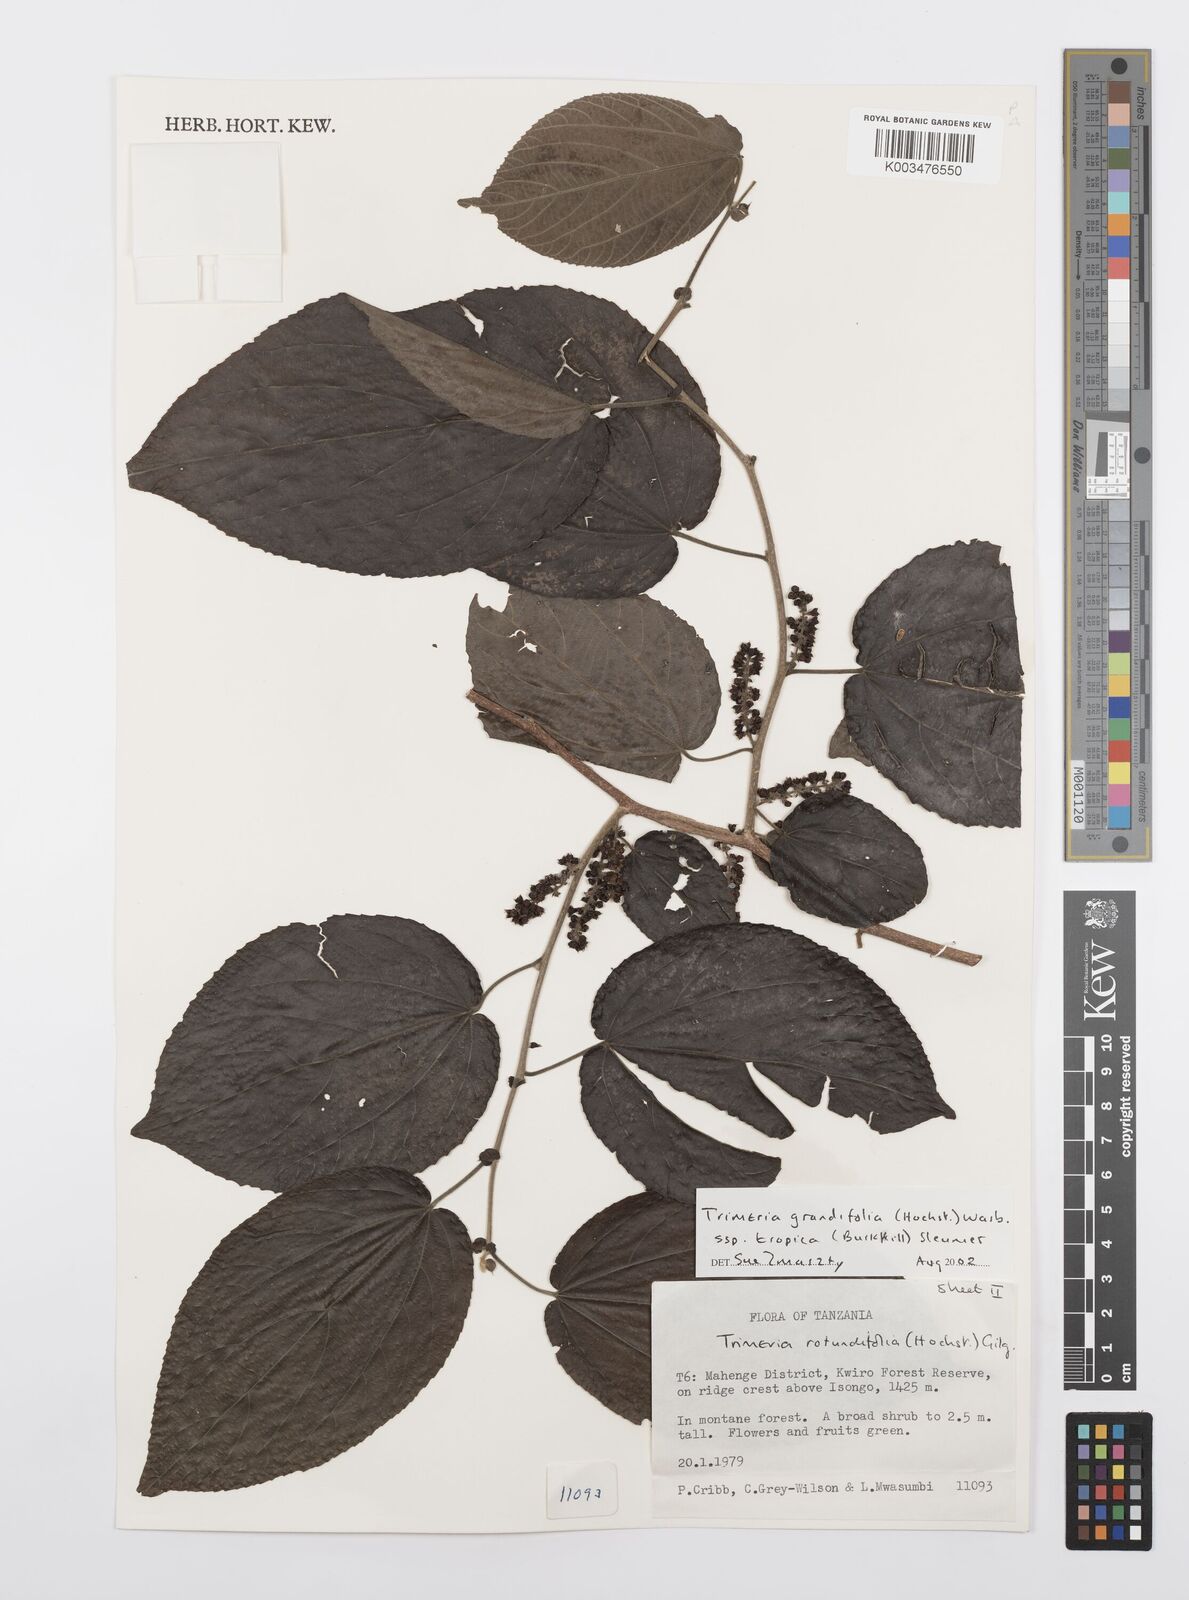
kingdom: Plantae
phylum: Tracheophyta
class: Magnoliopsida
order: Malpighiales
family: Salicaceae
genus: Trimeria
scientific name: Trimeria grandifolia
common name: Wild mulberry
